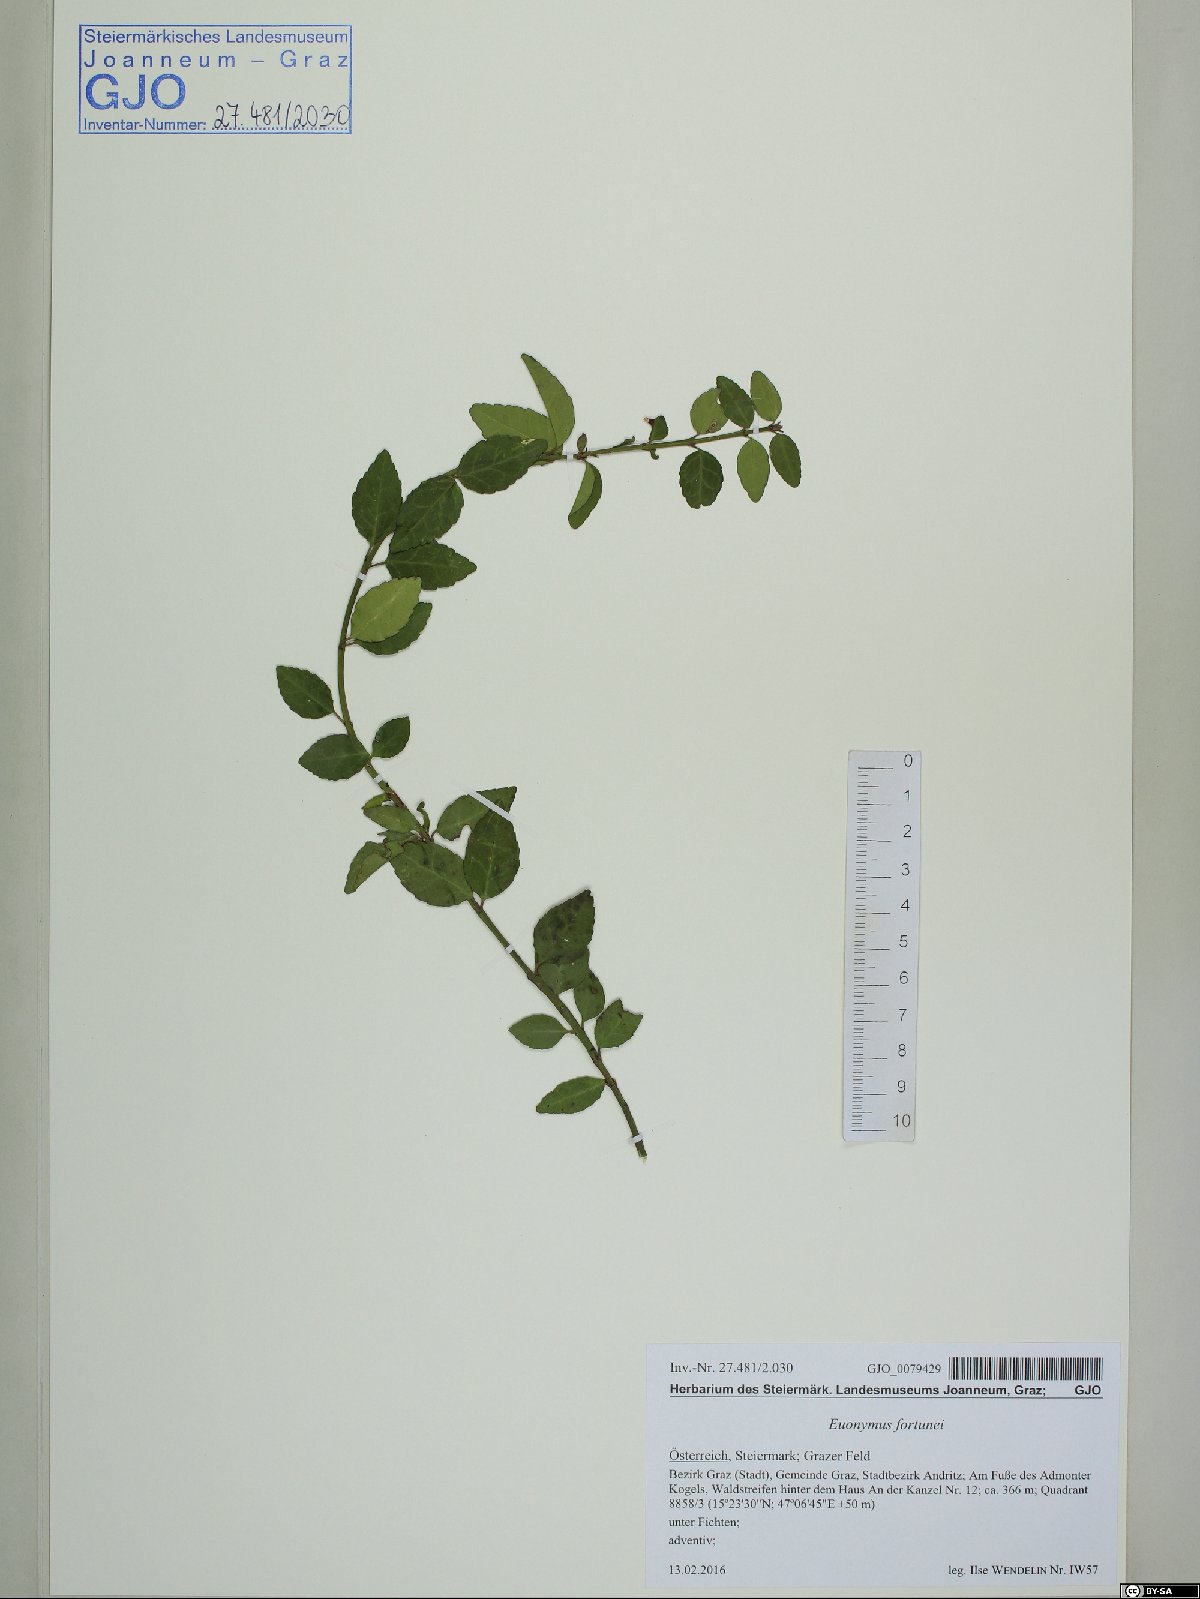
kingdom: Plantae
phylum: Tracheophyta
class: Magnoliopsida
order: Celastrales
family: Celastraceae
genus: Euonymus
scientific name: Euonymus fortunei
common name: Climbing euonymus
